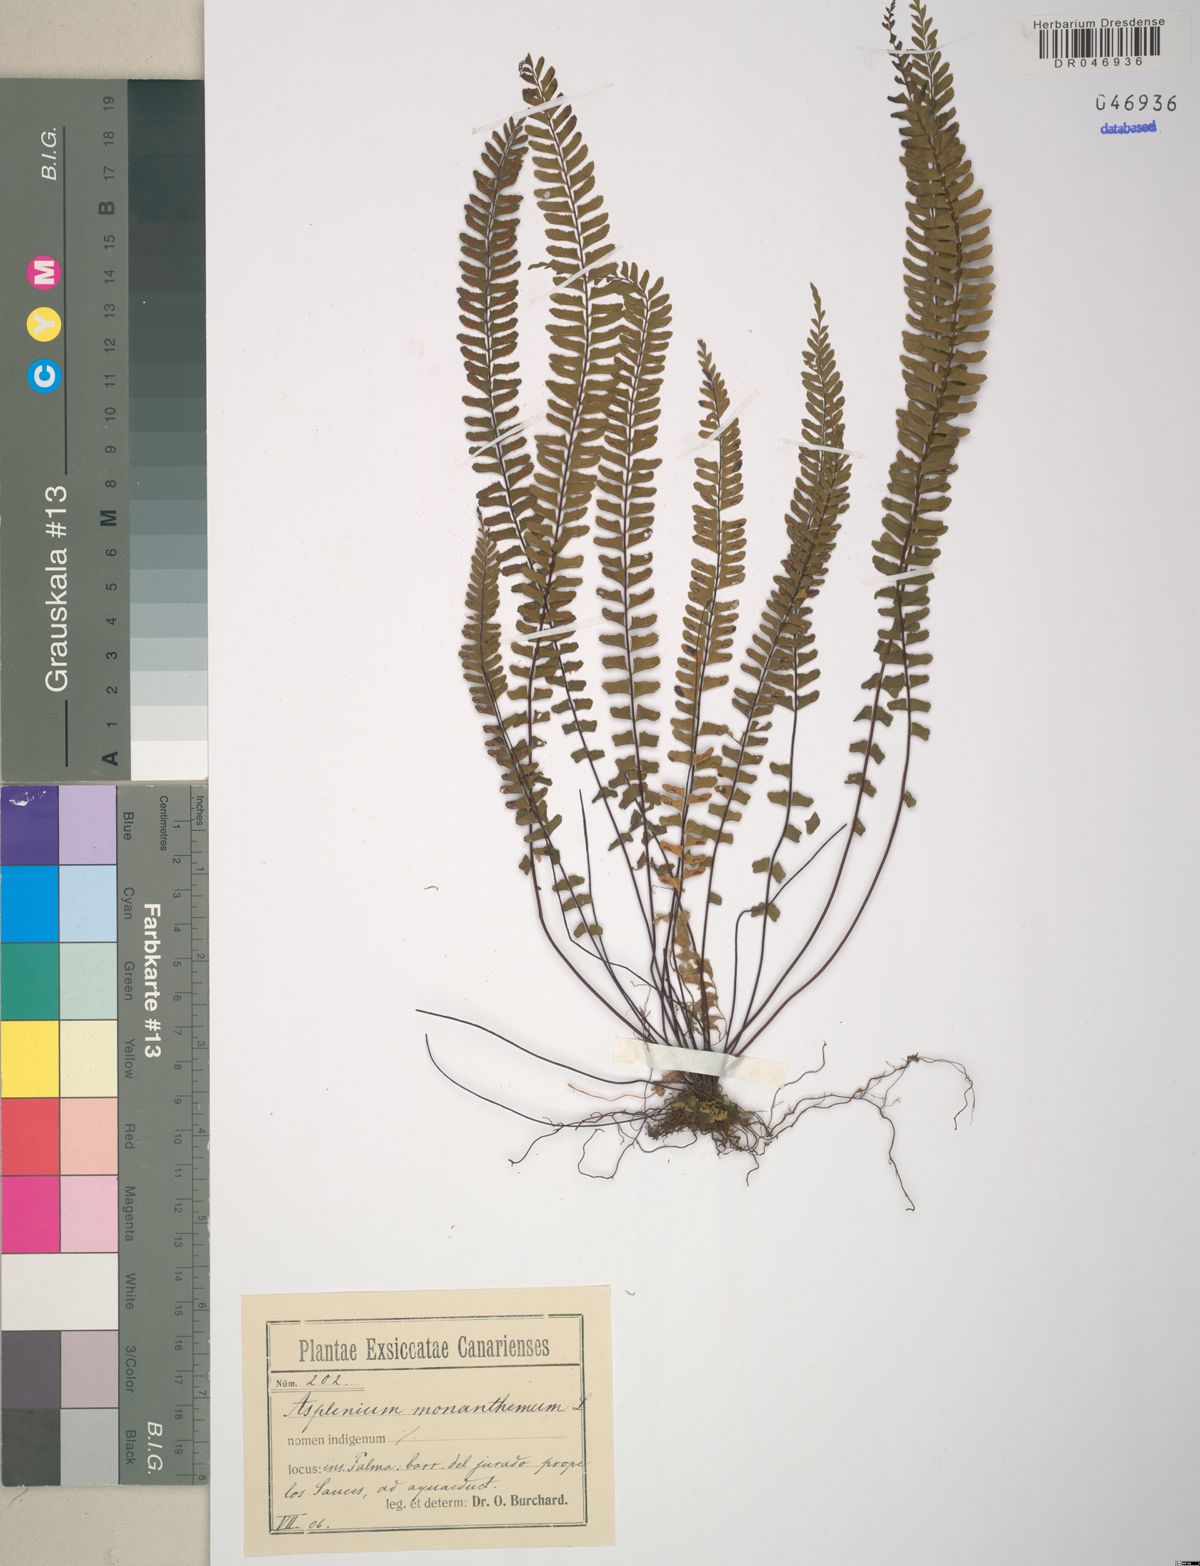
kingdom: Plantae
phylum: Tracheophyta
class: Polypodiopsida
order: Polypodiales
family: Aspleniaceae
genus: Asplenium
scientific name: Asplenium monanthes
